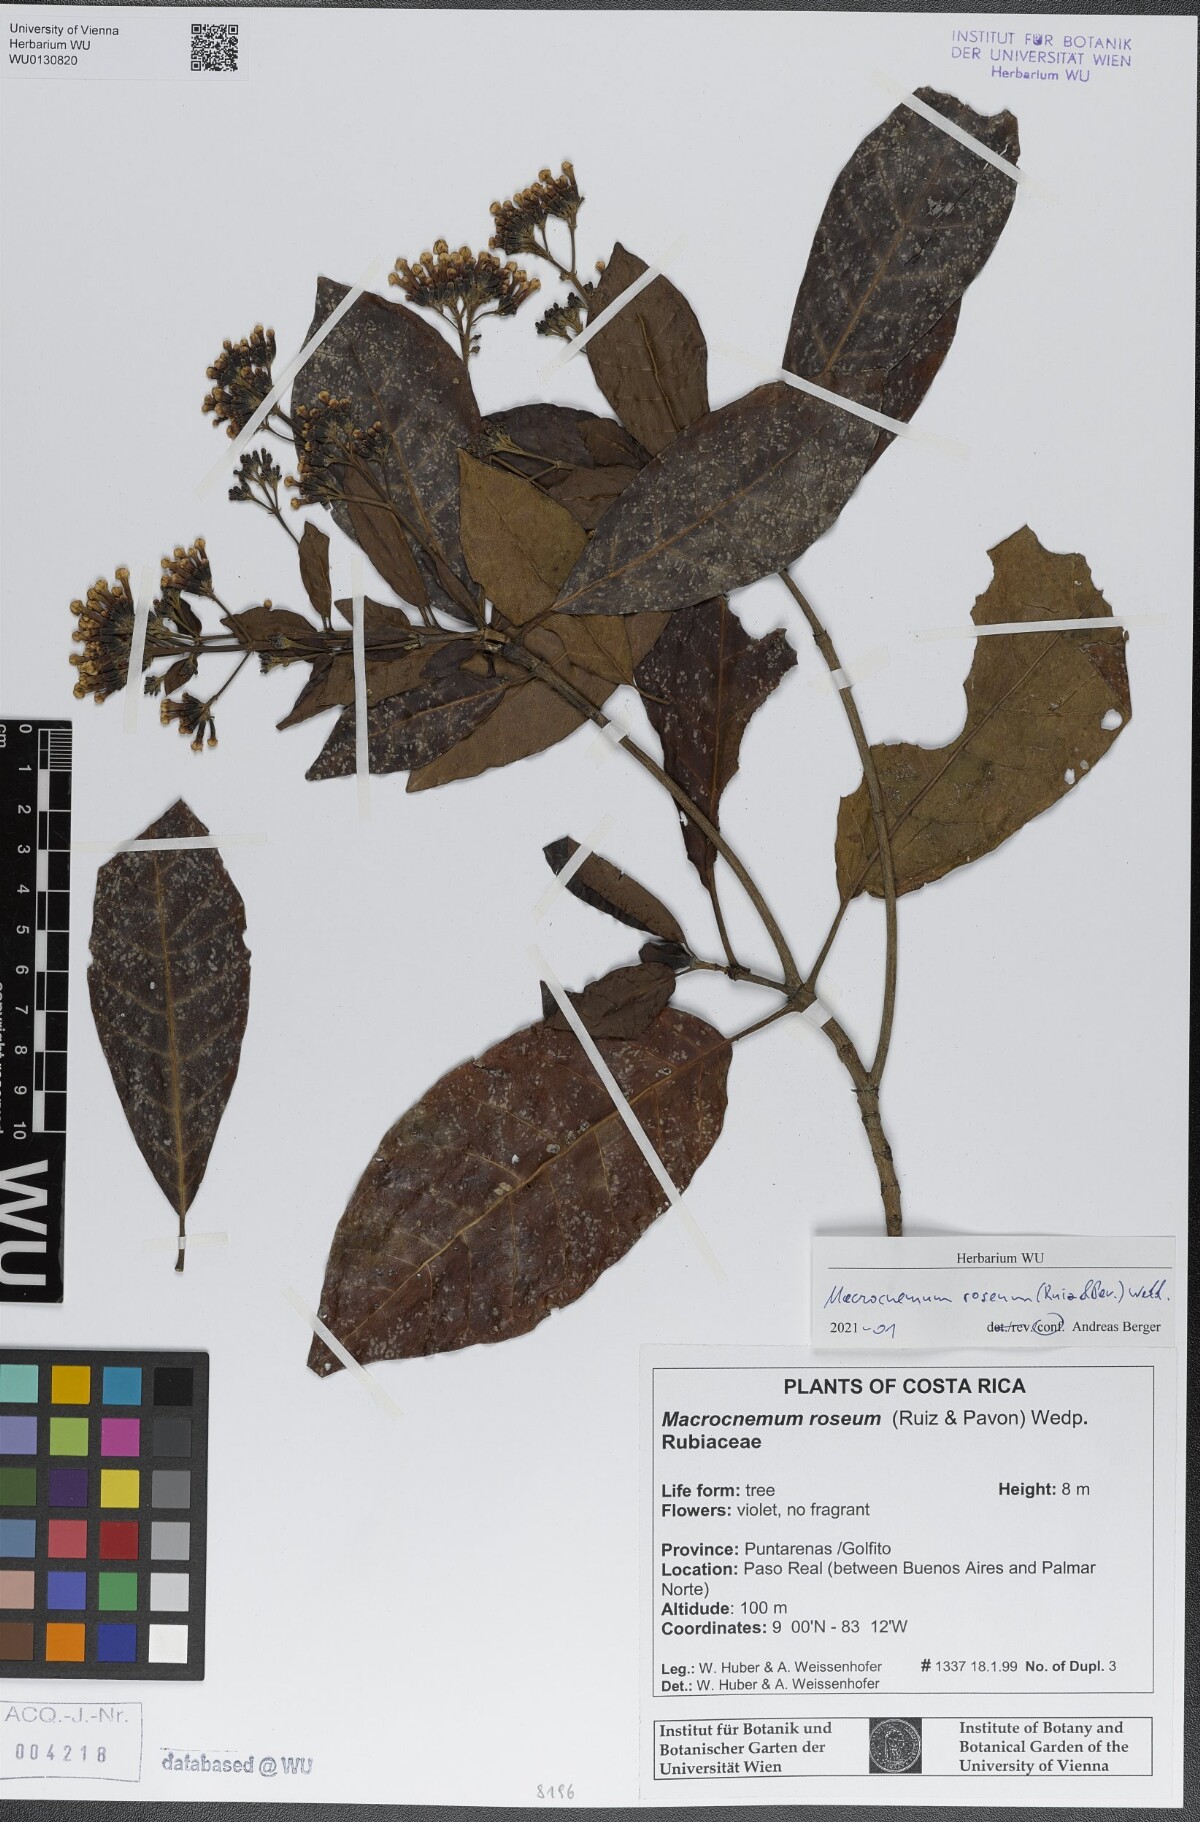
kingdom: Plantae
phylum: Tracheophyta
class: Magnoliopsida
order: Gentianales
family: Rubiaceae
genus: Macrocnemum
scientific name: Macrocnemum roseum
